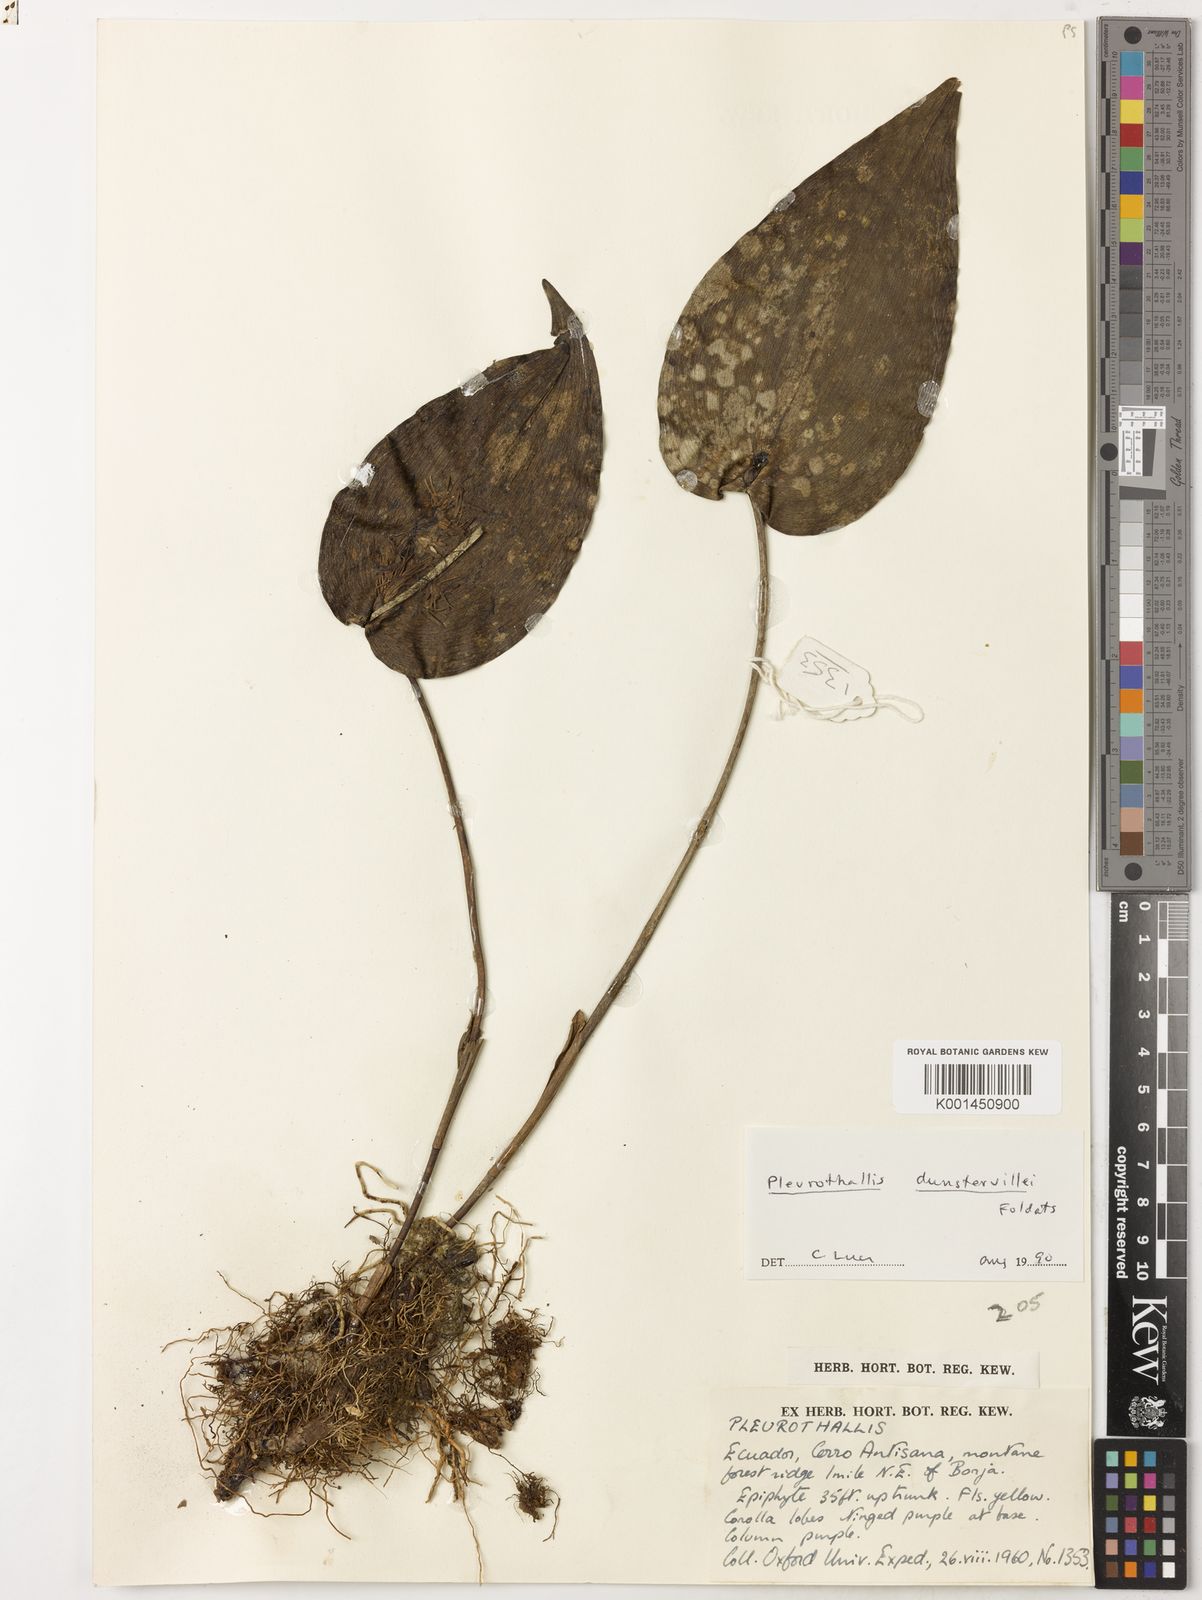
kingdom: Plantae
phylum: Tracheophyta
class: Liliopsida
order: Asparagales
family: Orchidaceae
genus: Pleurothallis
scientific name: Pleurothallis dunstervillei
